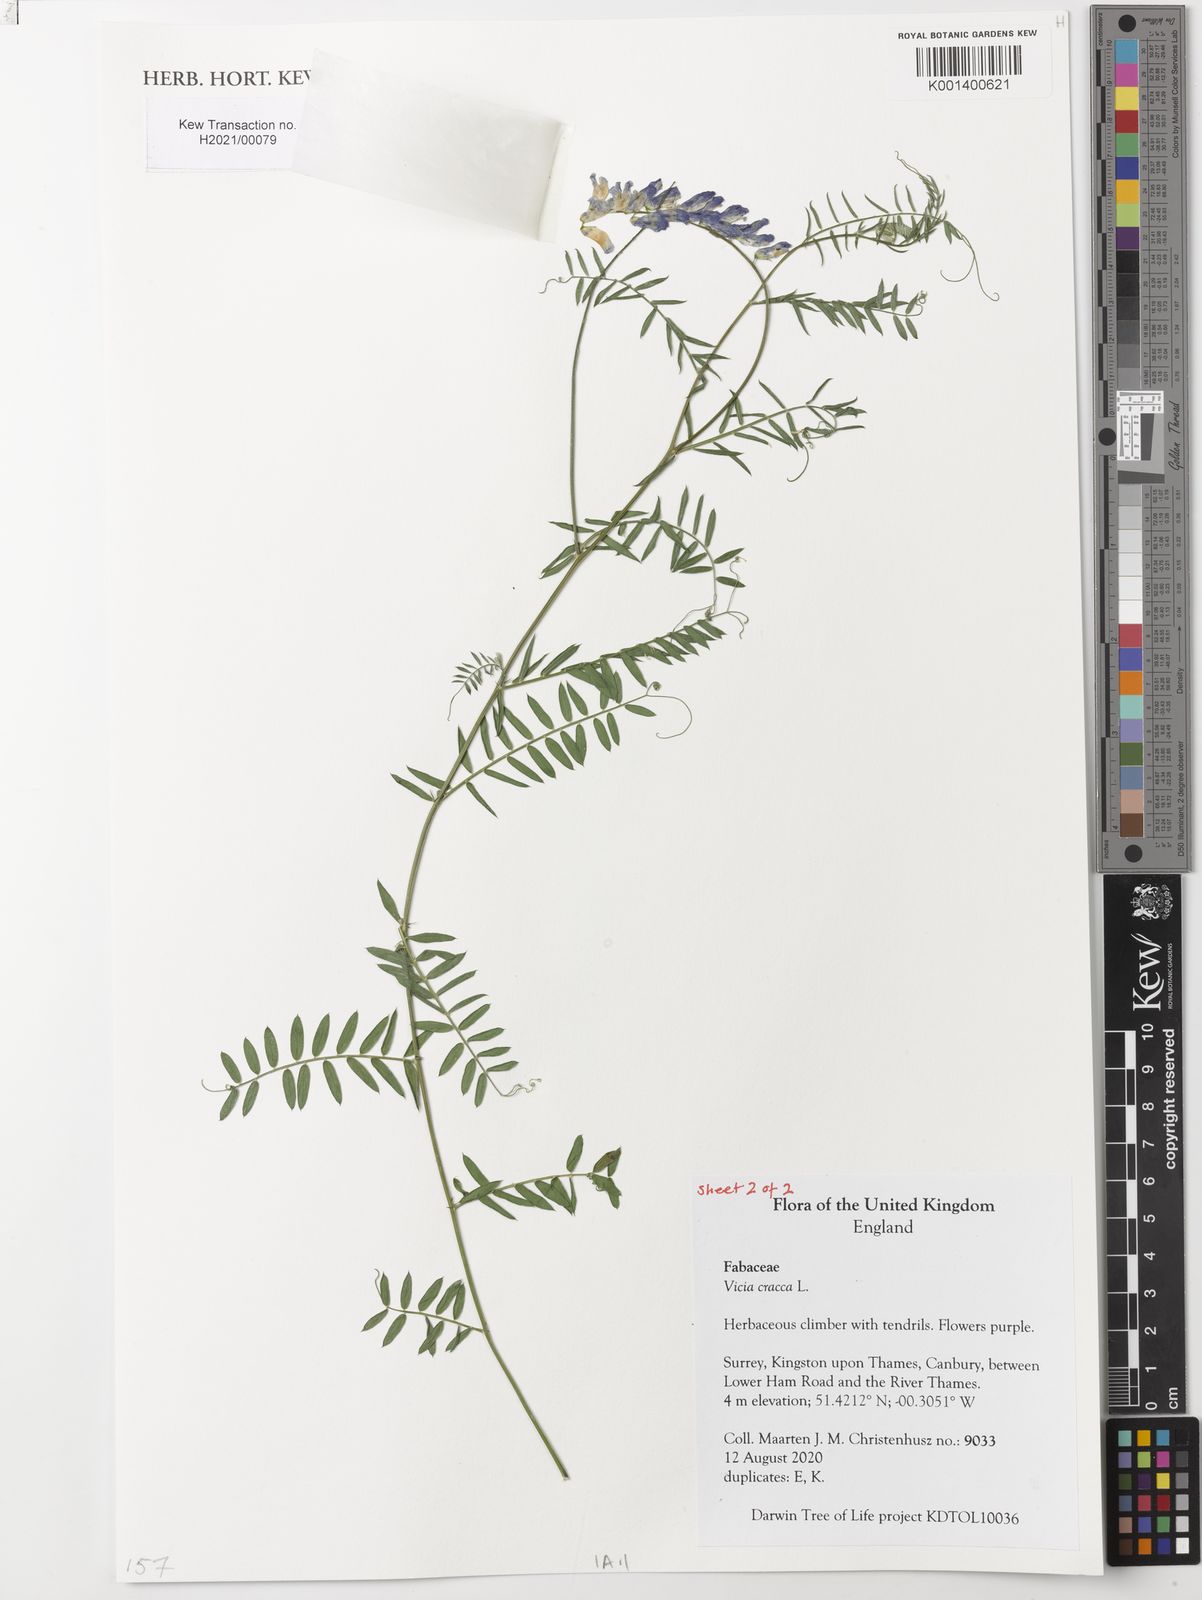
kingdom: Plantae
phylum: Tracheophyta
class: Magnoliopsida
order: Fabales
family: Fabaceae
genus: Vicia
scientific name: Vicia cracca
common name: Bird vetch
